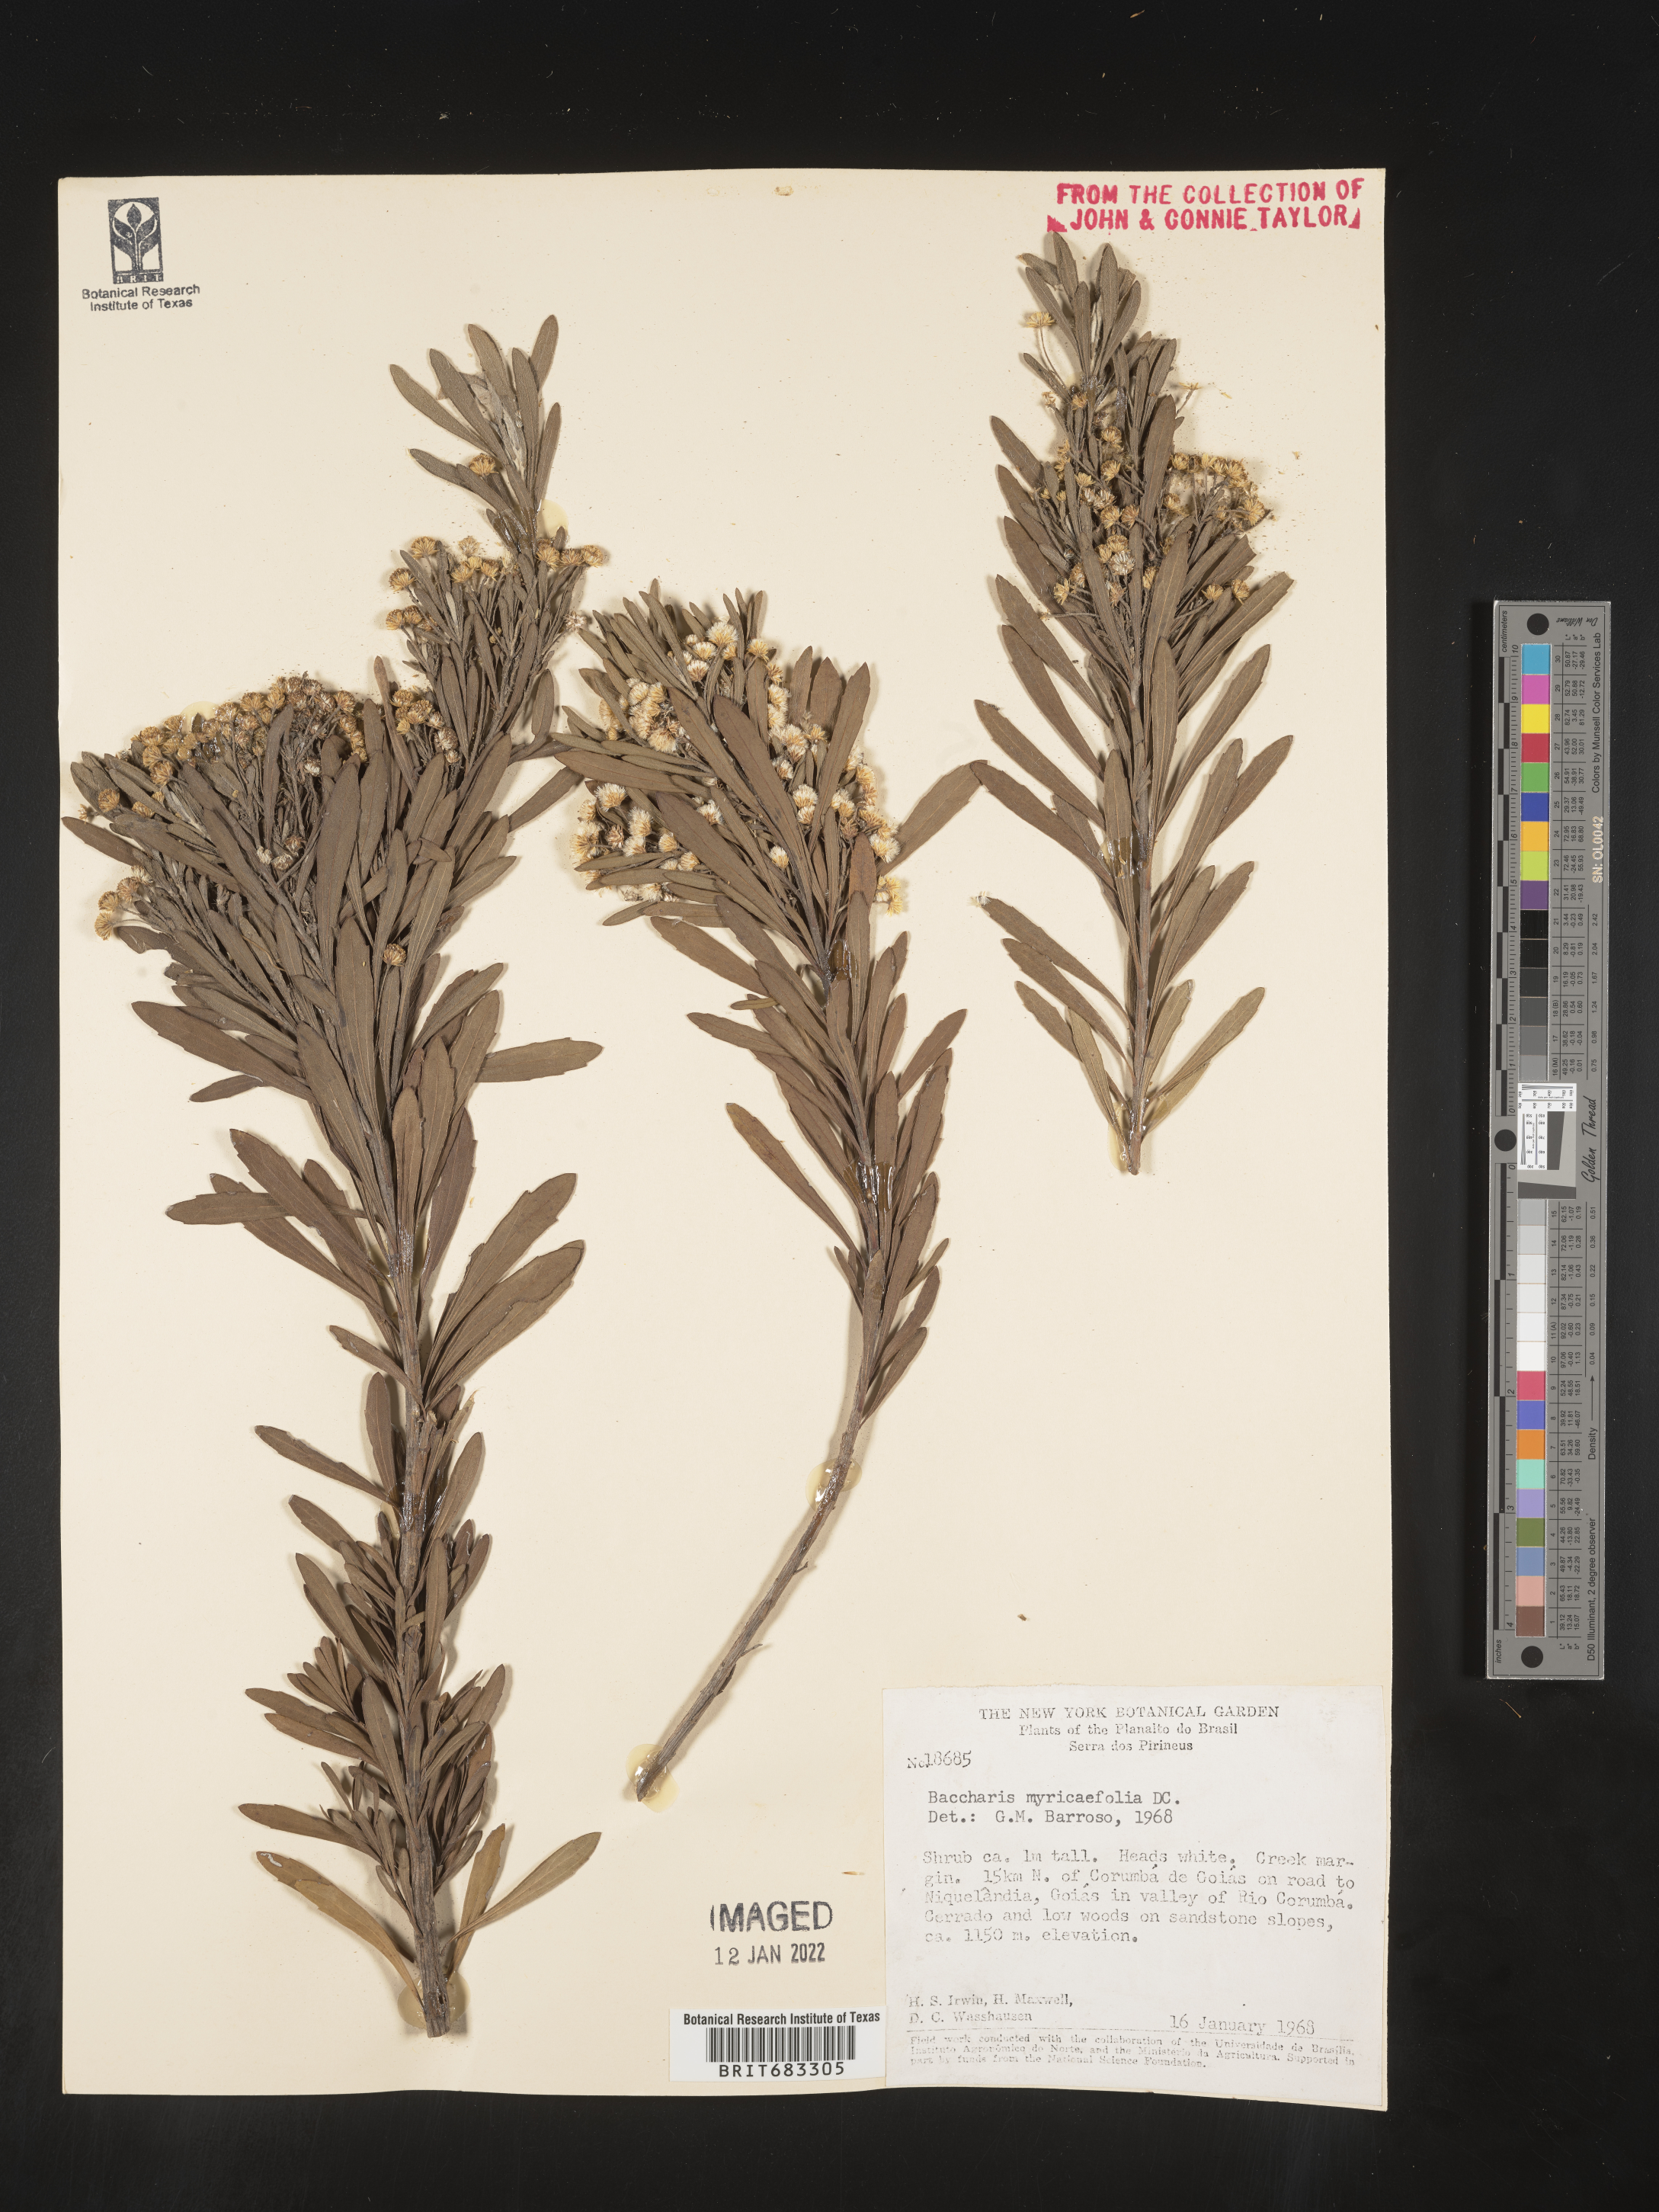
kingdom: Plantae
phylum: Tracheophyta
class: Magnoliopsida
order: Asterales
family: Asteraceae
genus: Baccharis
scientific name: Baccharis
